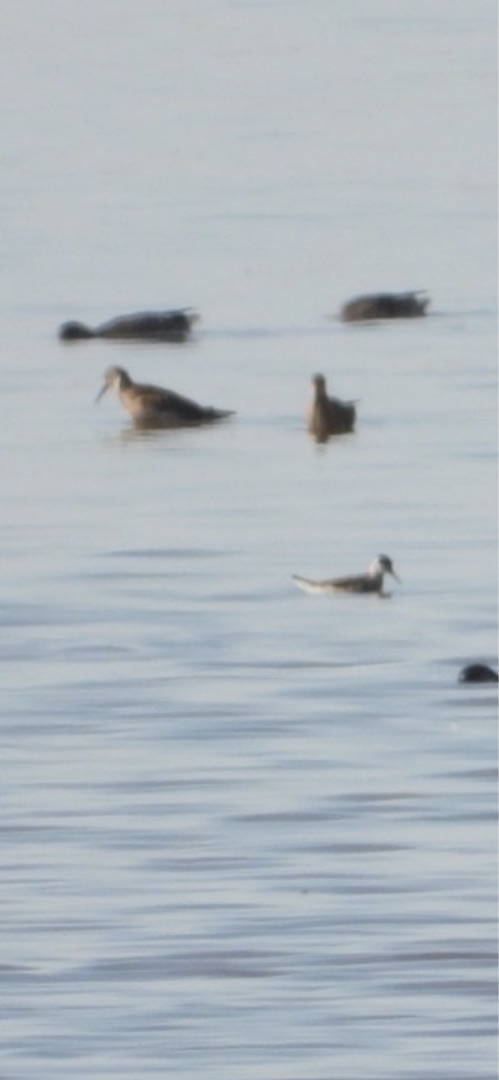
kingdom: Animalia
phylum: Chordata
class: Aves
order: Charadriiformes
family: Scolopacidae
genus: Phalaropus
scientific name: Phalaropus lobatus
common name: Odinshane
